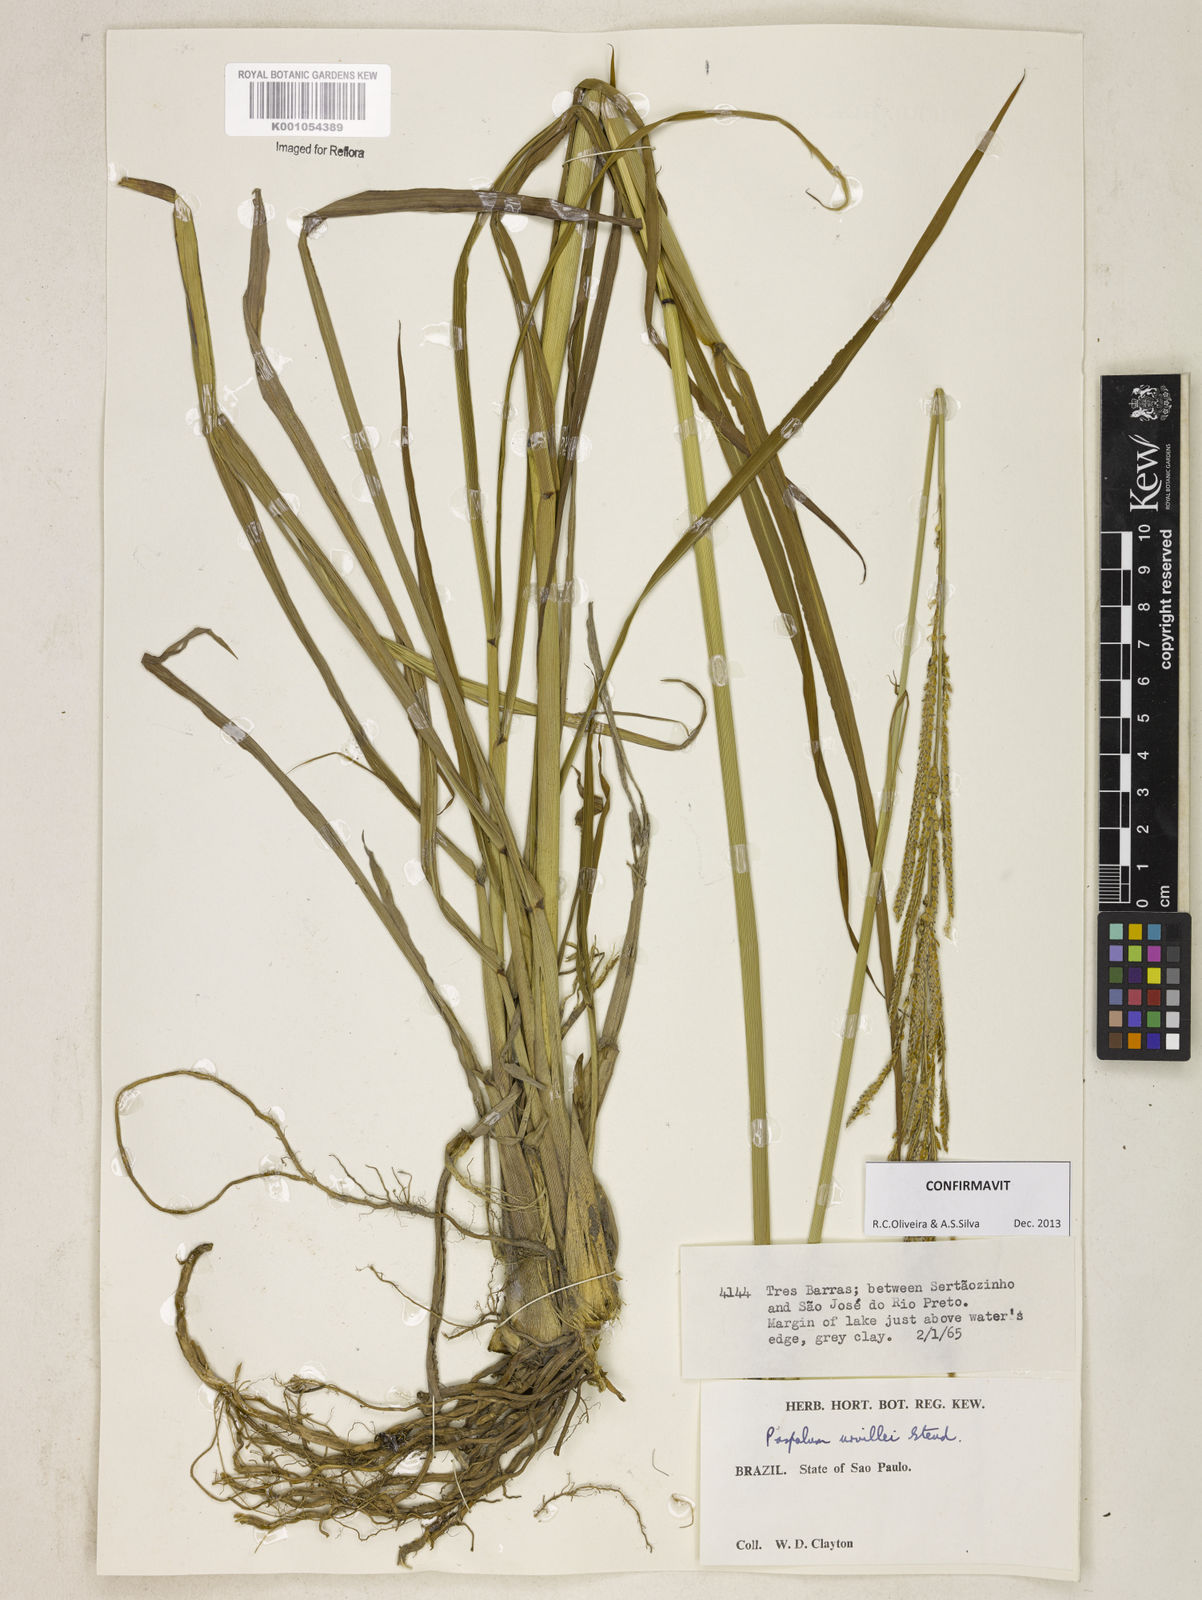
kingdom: Plantae
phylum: Tracheophyta
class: Liliopsida
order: Poales
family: Poaceae
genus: Paspalum
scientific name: Paspalum urvillei
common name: Vasey's grass
